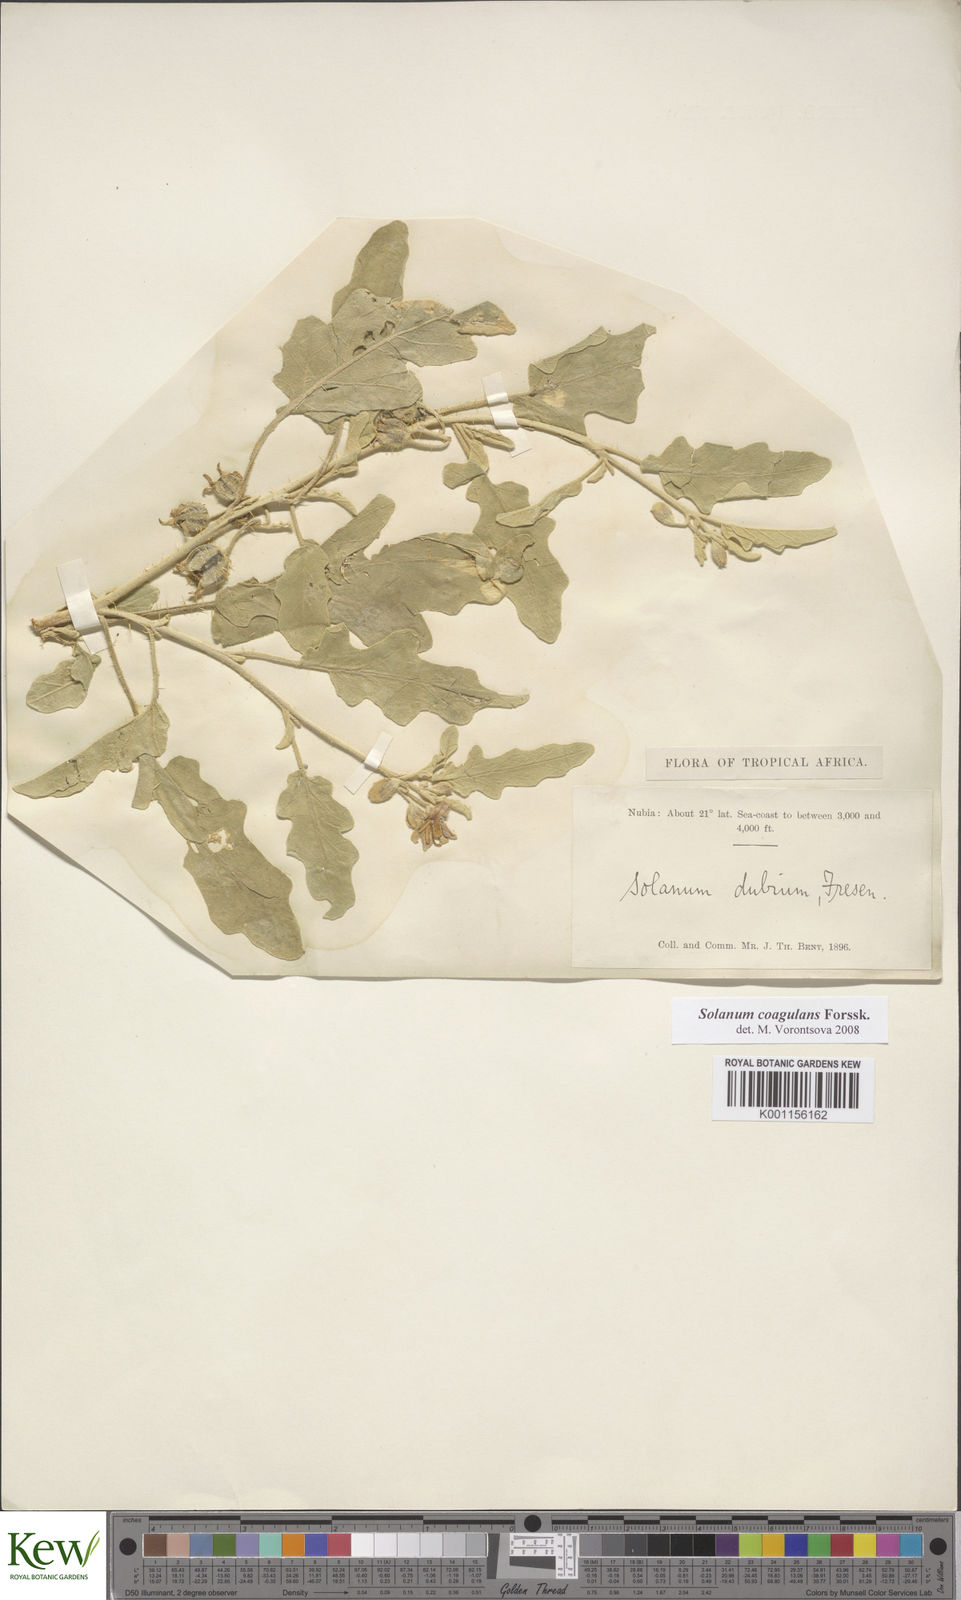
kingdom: Plantae
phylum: Tracheophyta
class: Magnoliopsida
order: Solanales
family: Solanaceae
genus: Solanum
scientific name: Solanum coagulans
